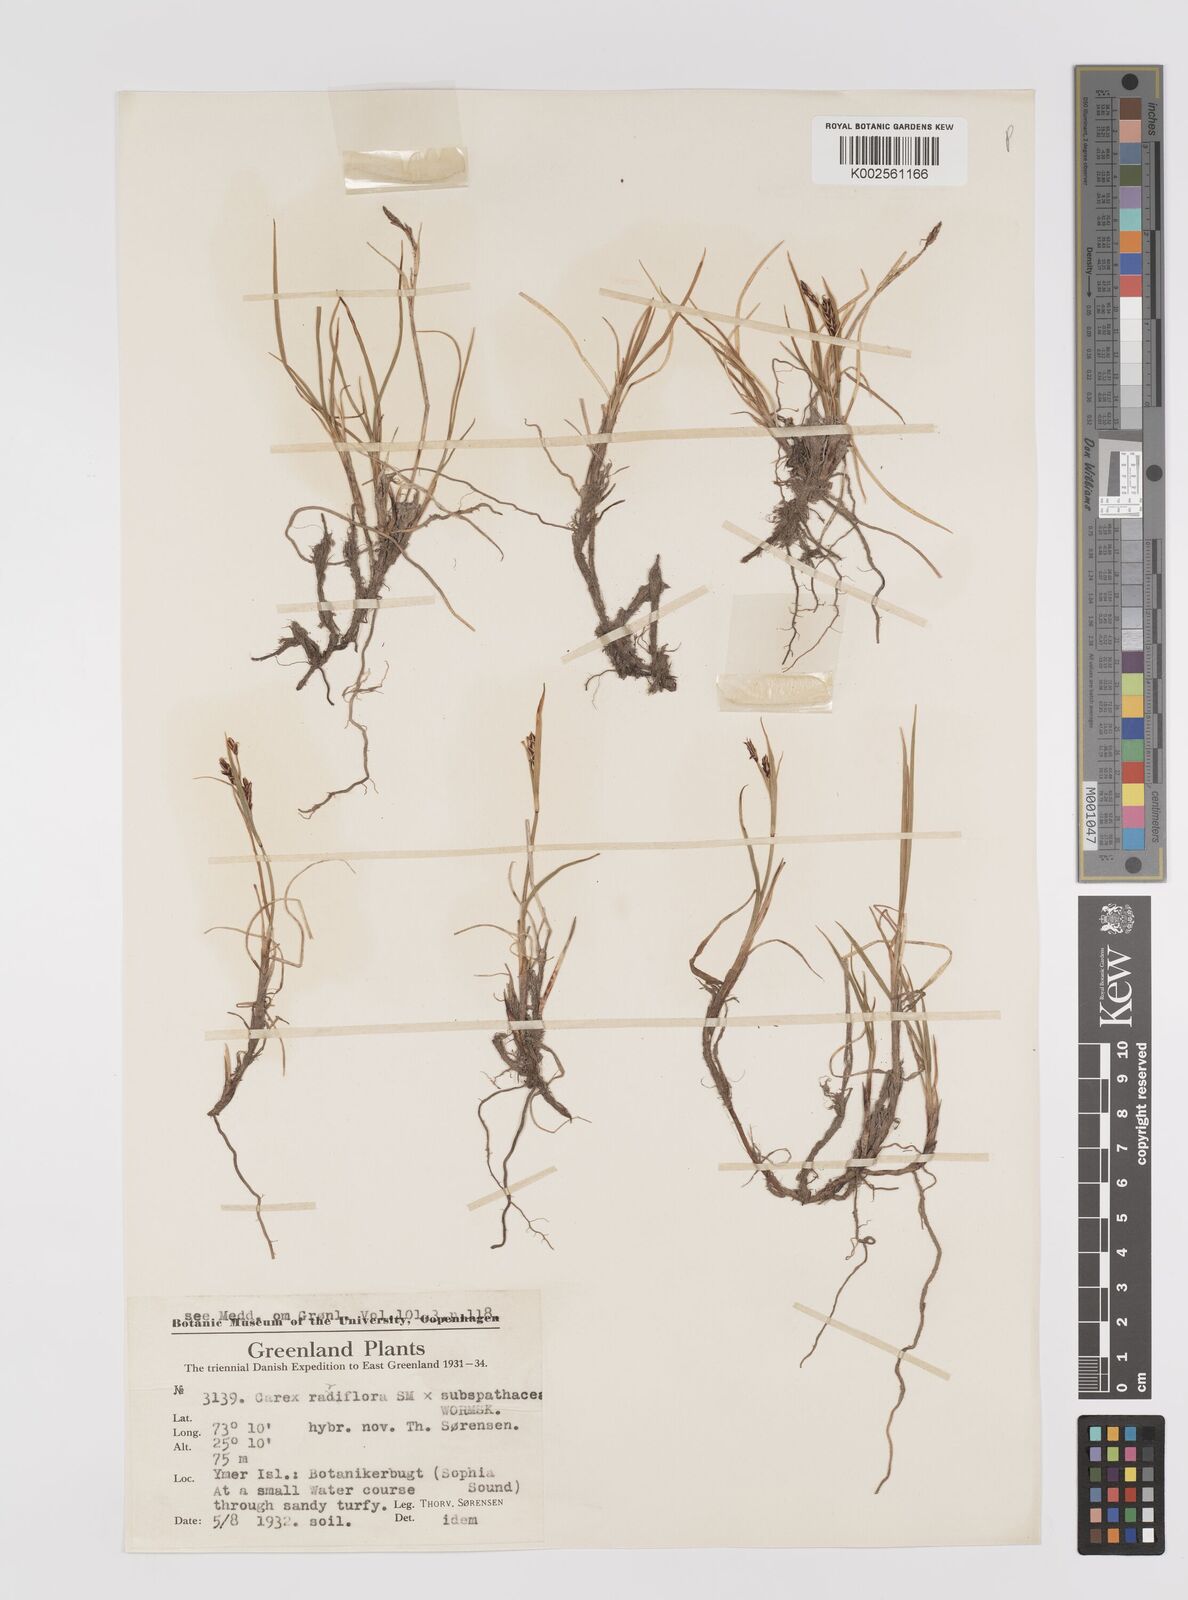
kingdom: Plantae
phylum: Tracheophyta
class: Liliopsida
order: Poales
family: Cyperaceae
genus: Carex
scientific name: Carex rariflora
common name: Loose-flowered alpine sedge
